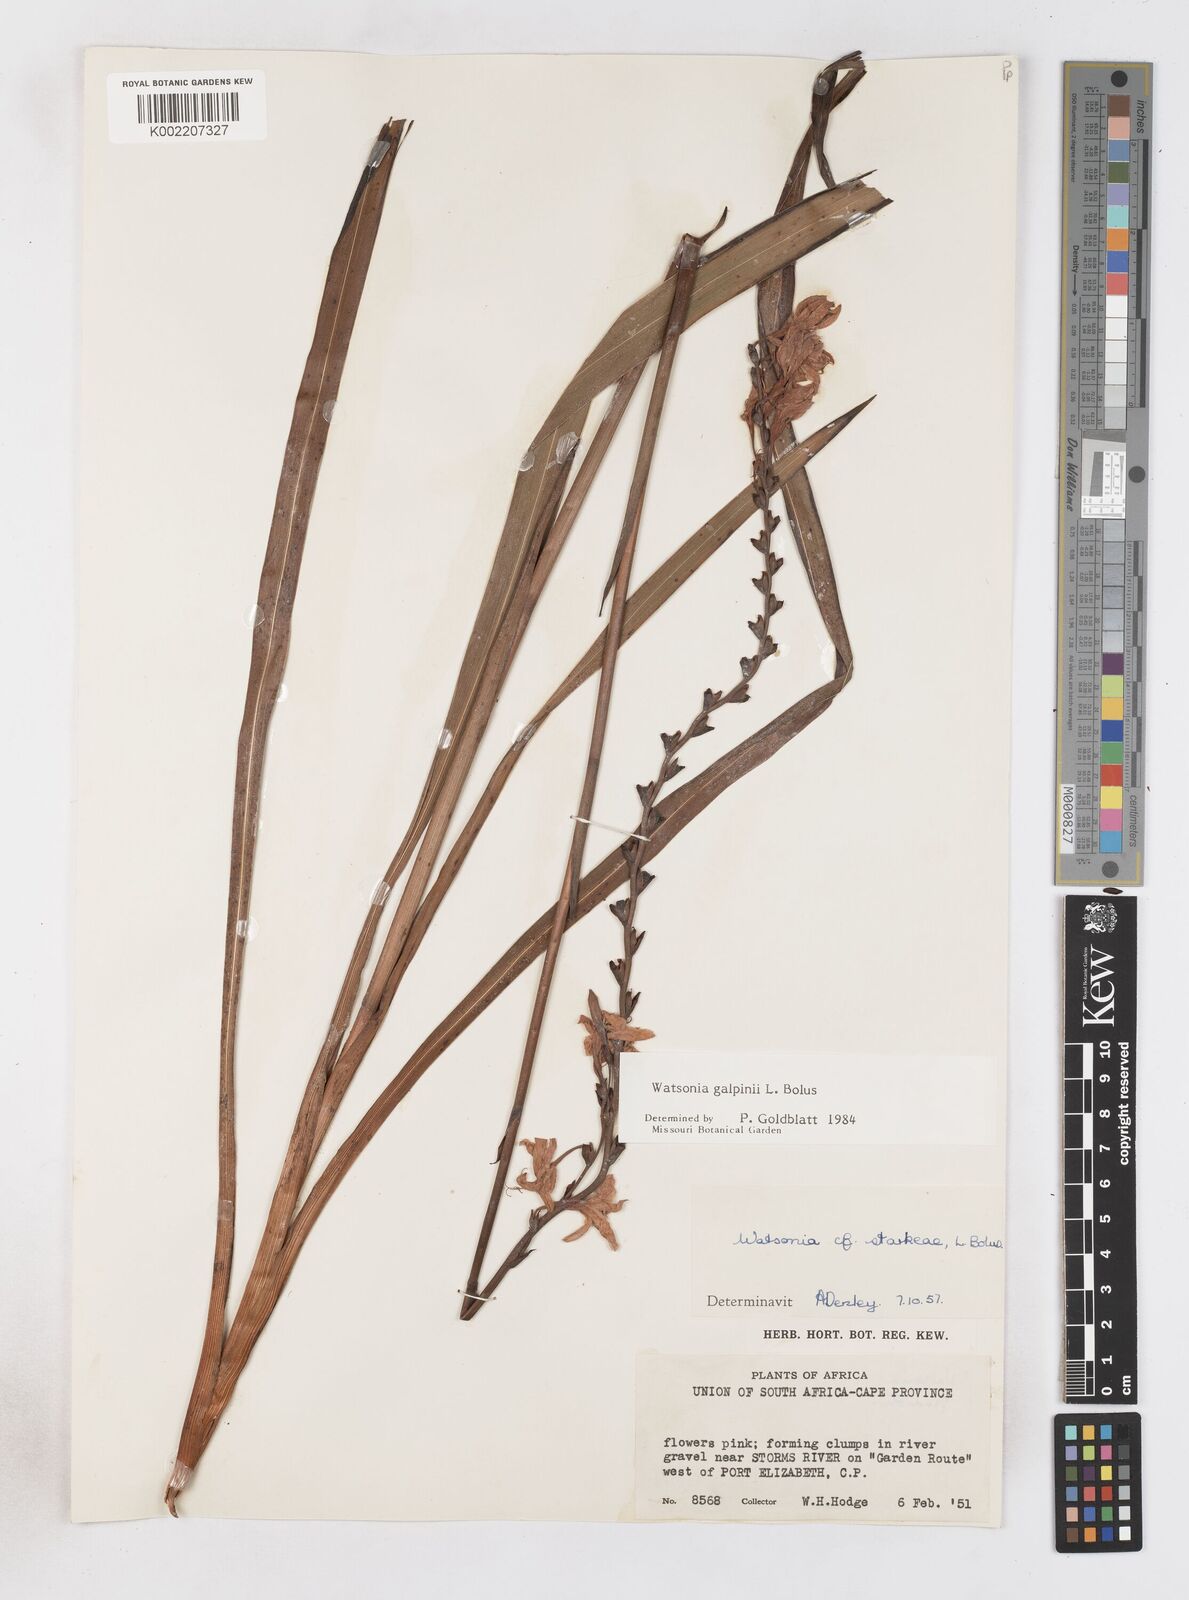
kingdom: Plantae
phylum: Tracheophyta
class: Liliopsida
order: Asparagales
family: Iridaceae
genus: Watsonia
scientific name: Watsonia galpinii
